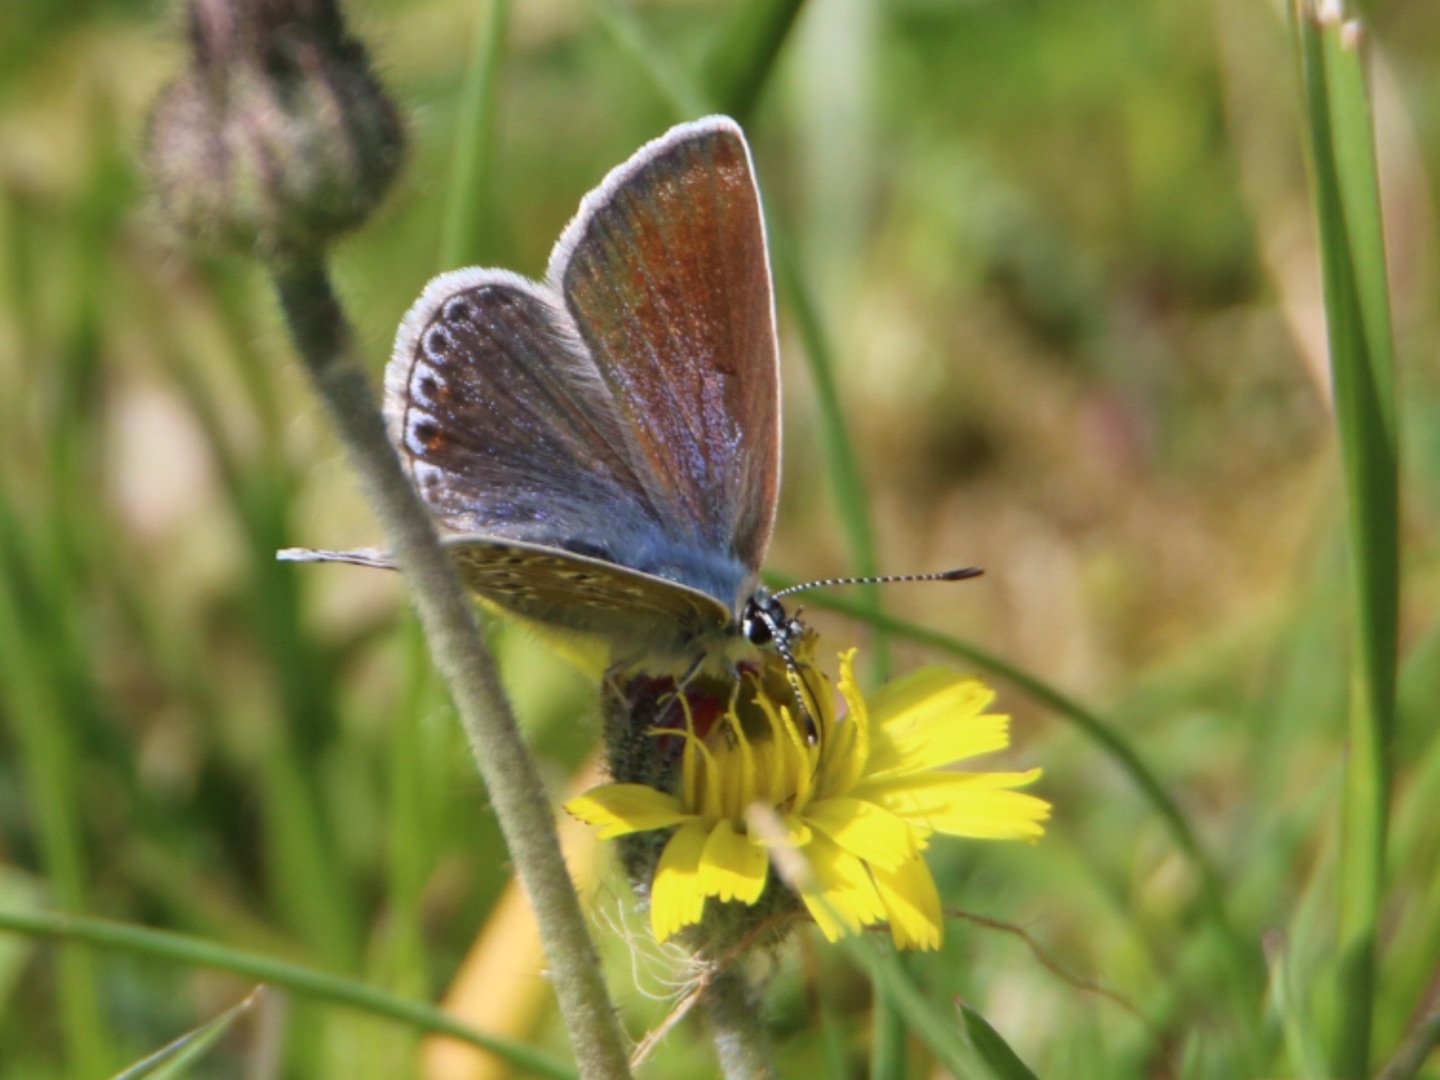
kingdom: Animalia
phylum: Arthropoda
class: Insecta
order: Lepidoptera
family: Lycaenidae
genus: Polyommatus
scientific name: Polyommatus icarus
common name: Almindelig blåfugl
